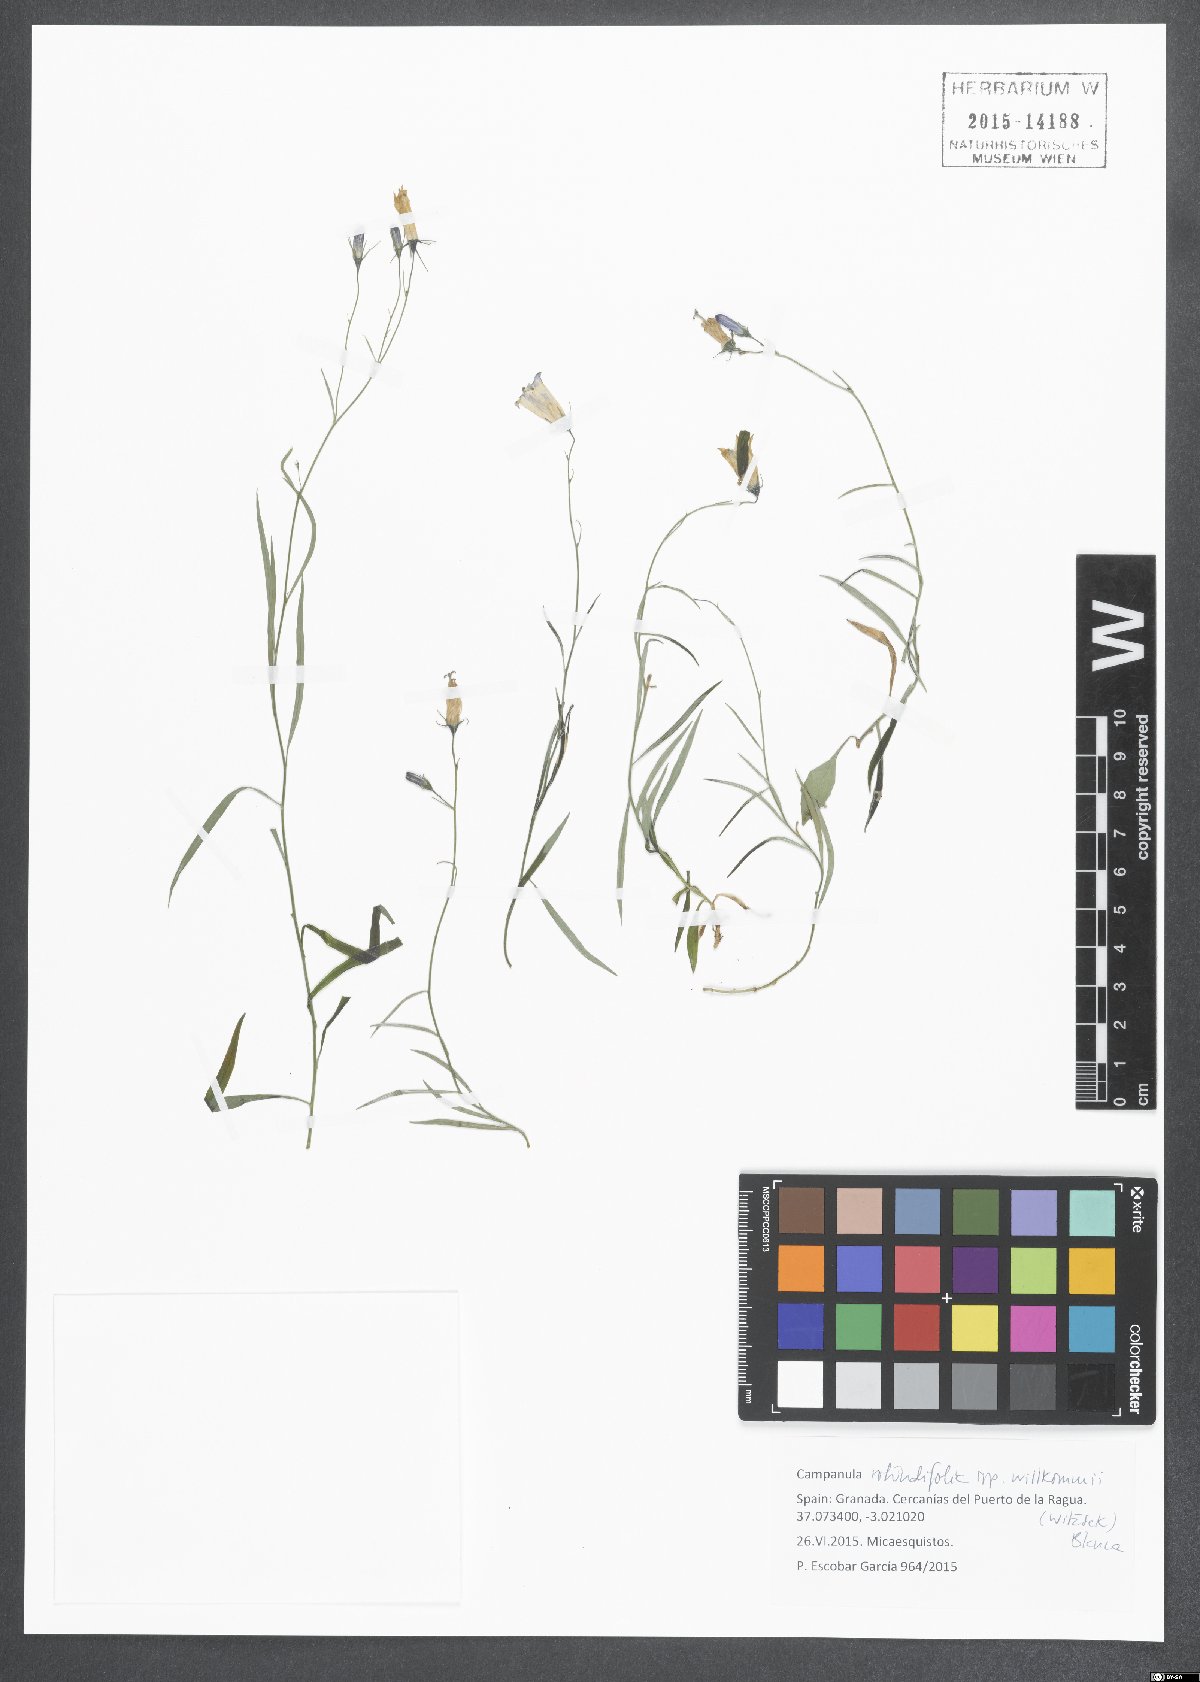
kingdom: Plantae
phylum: Tracheophyta
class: Magnoliopsida
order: Asterales
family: Campanulaceae
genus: Campanula
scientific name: Campanula willkommii
